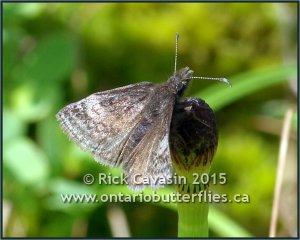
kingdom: Animalia
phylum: Arthropoda
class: Insecta
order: Lepidoptera
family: Hesperiidae
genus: Erynnis
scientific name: Erynnis icelus
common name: Dreamy Duskywing
